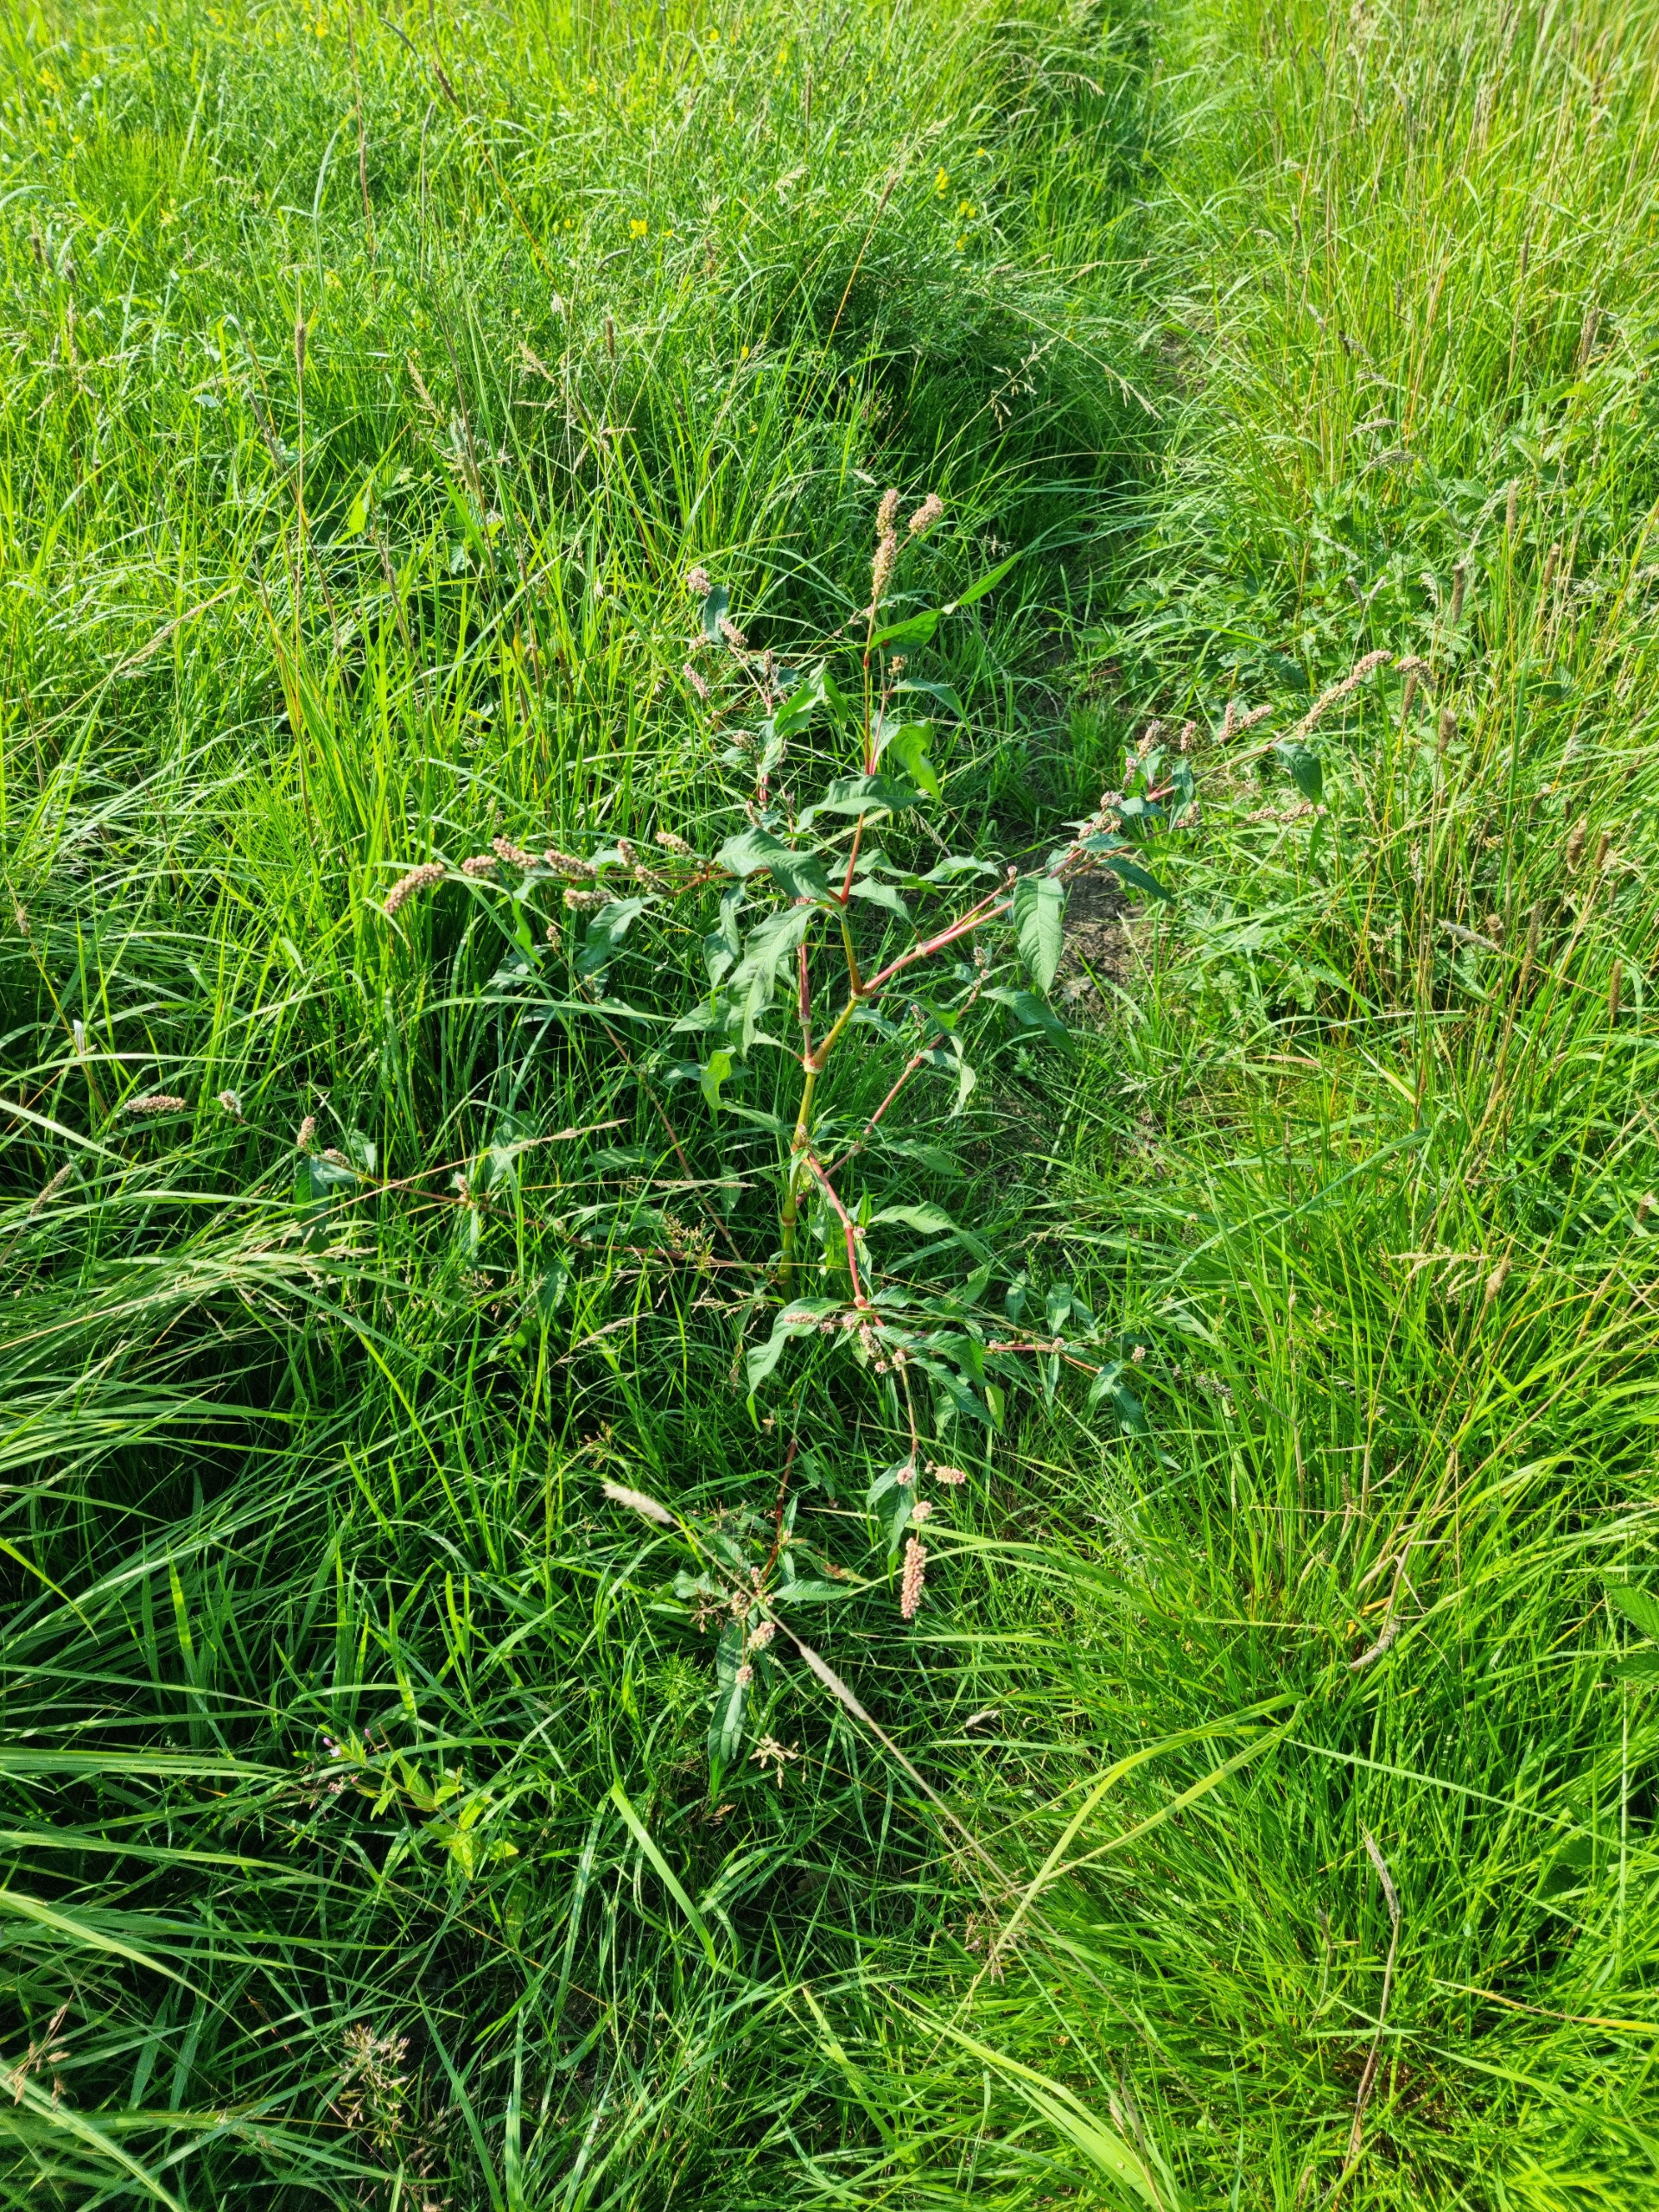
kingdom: Plantae
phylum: Tracheophyta
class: Magnoliopsida
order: Caryophyllales
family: Polygonaceae
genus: Persicaria
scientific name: Persicaria lapathifolia
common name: Knudet pileurt
